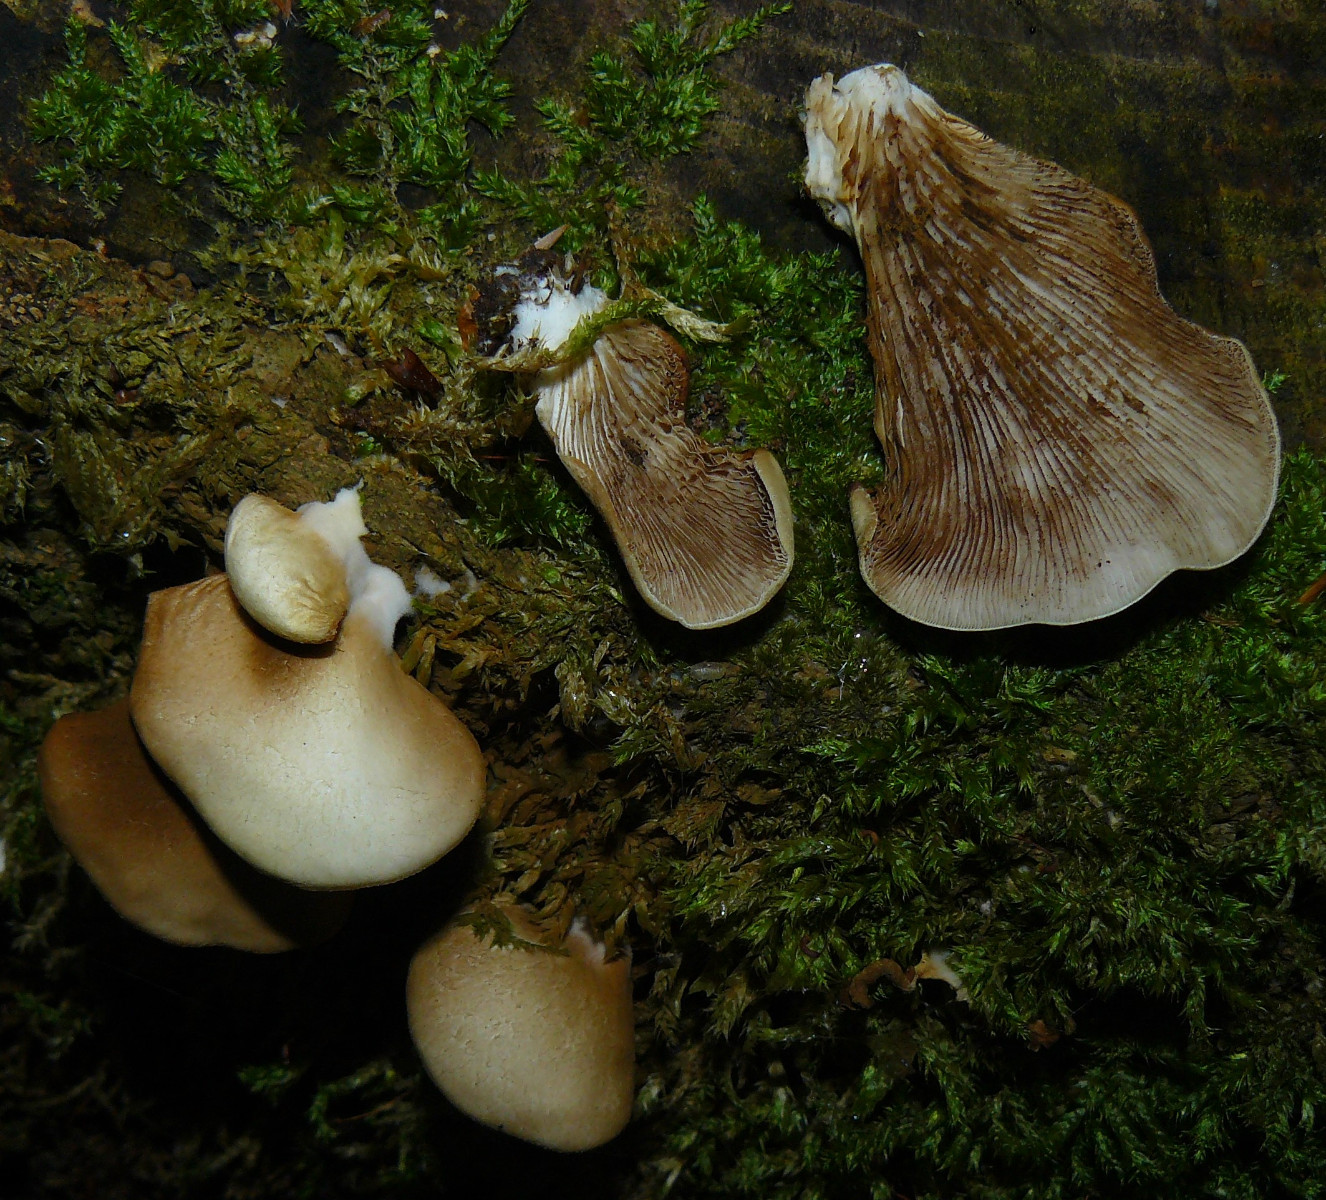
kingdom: Fungi
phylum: Basidiomycota
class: Agaricomycetes
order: Agaricales
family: Crepidotaceae
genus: Crepidotus
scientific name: Crepidotus mollis
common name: blød muslingesvamp
